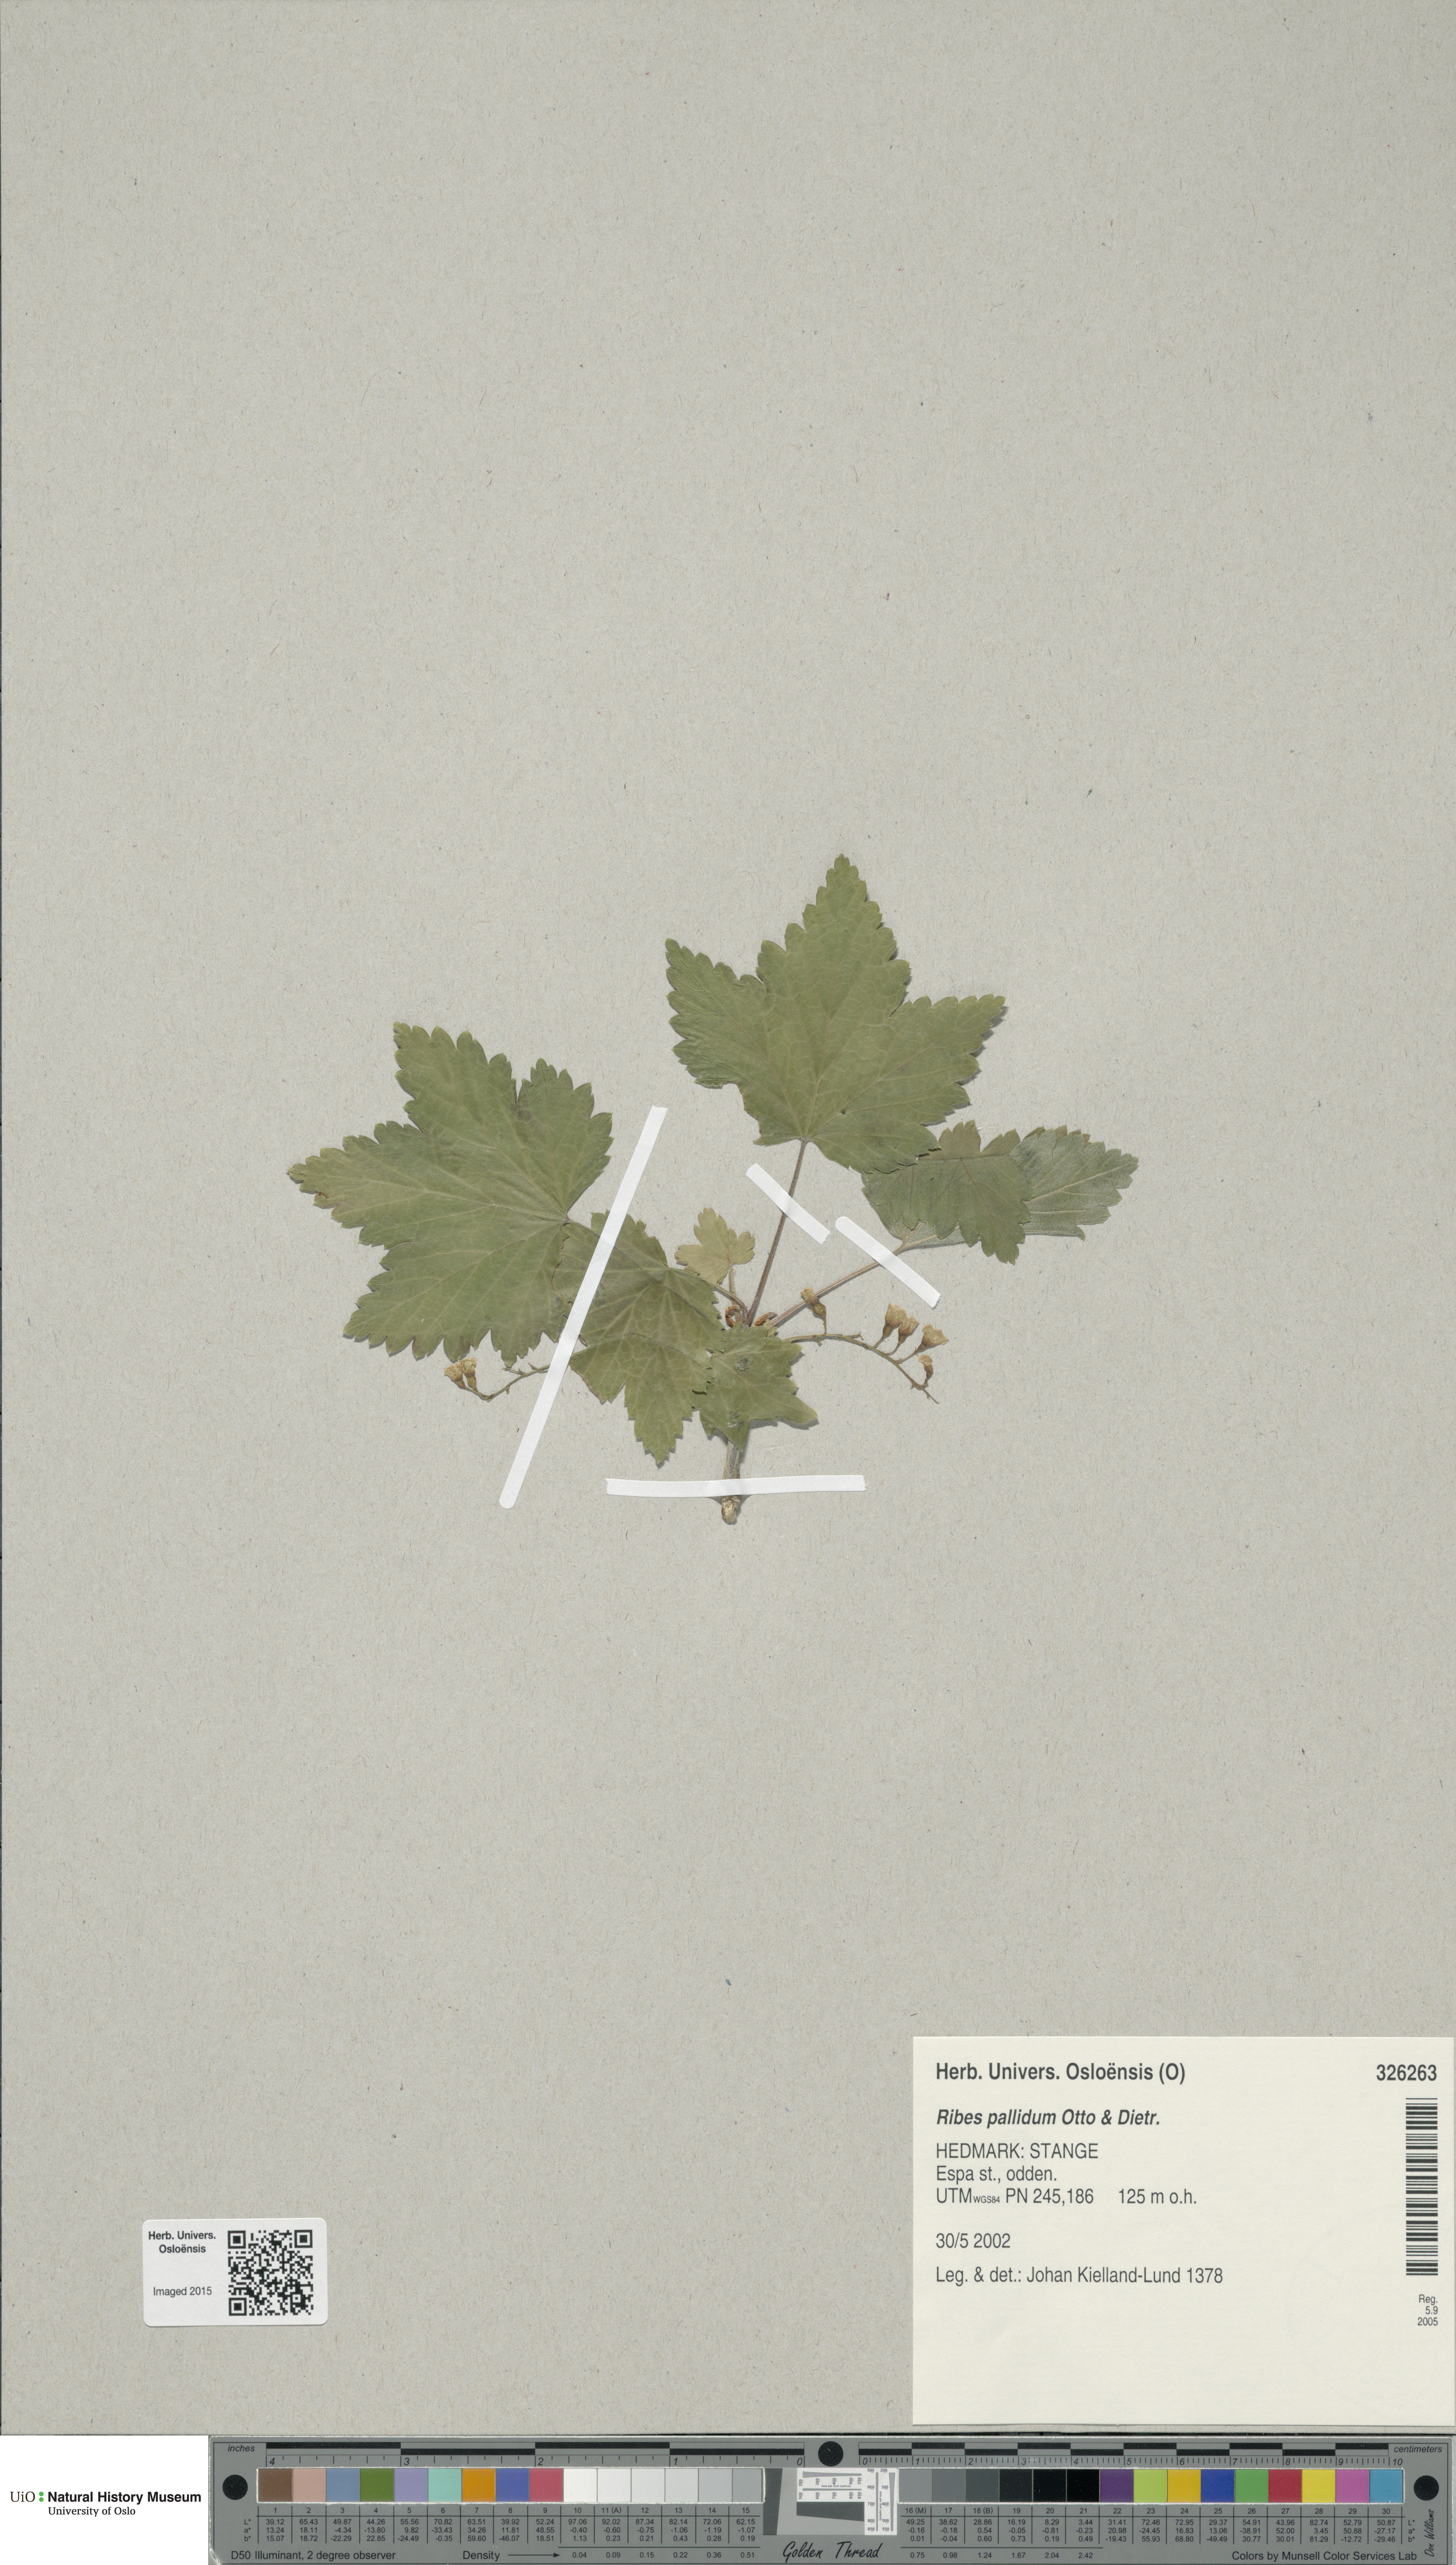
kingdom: Plantae
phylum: Tracheophyta
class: Magnoliopsida
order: Saxifragales
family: Grossulariaceae
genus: Ribes
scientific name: Ribes pallidum
